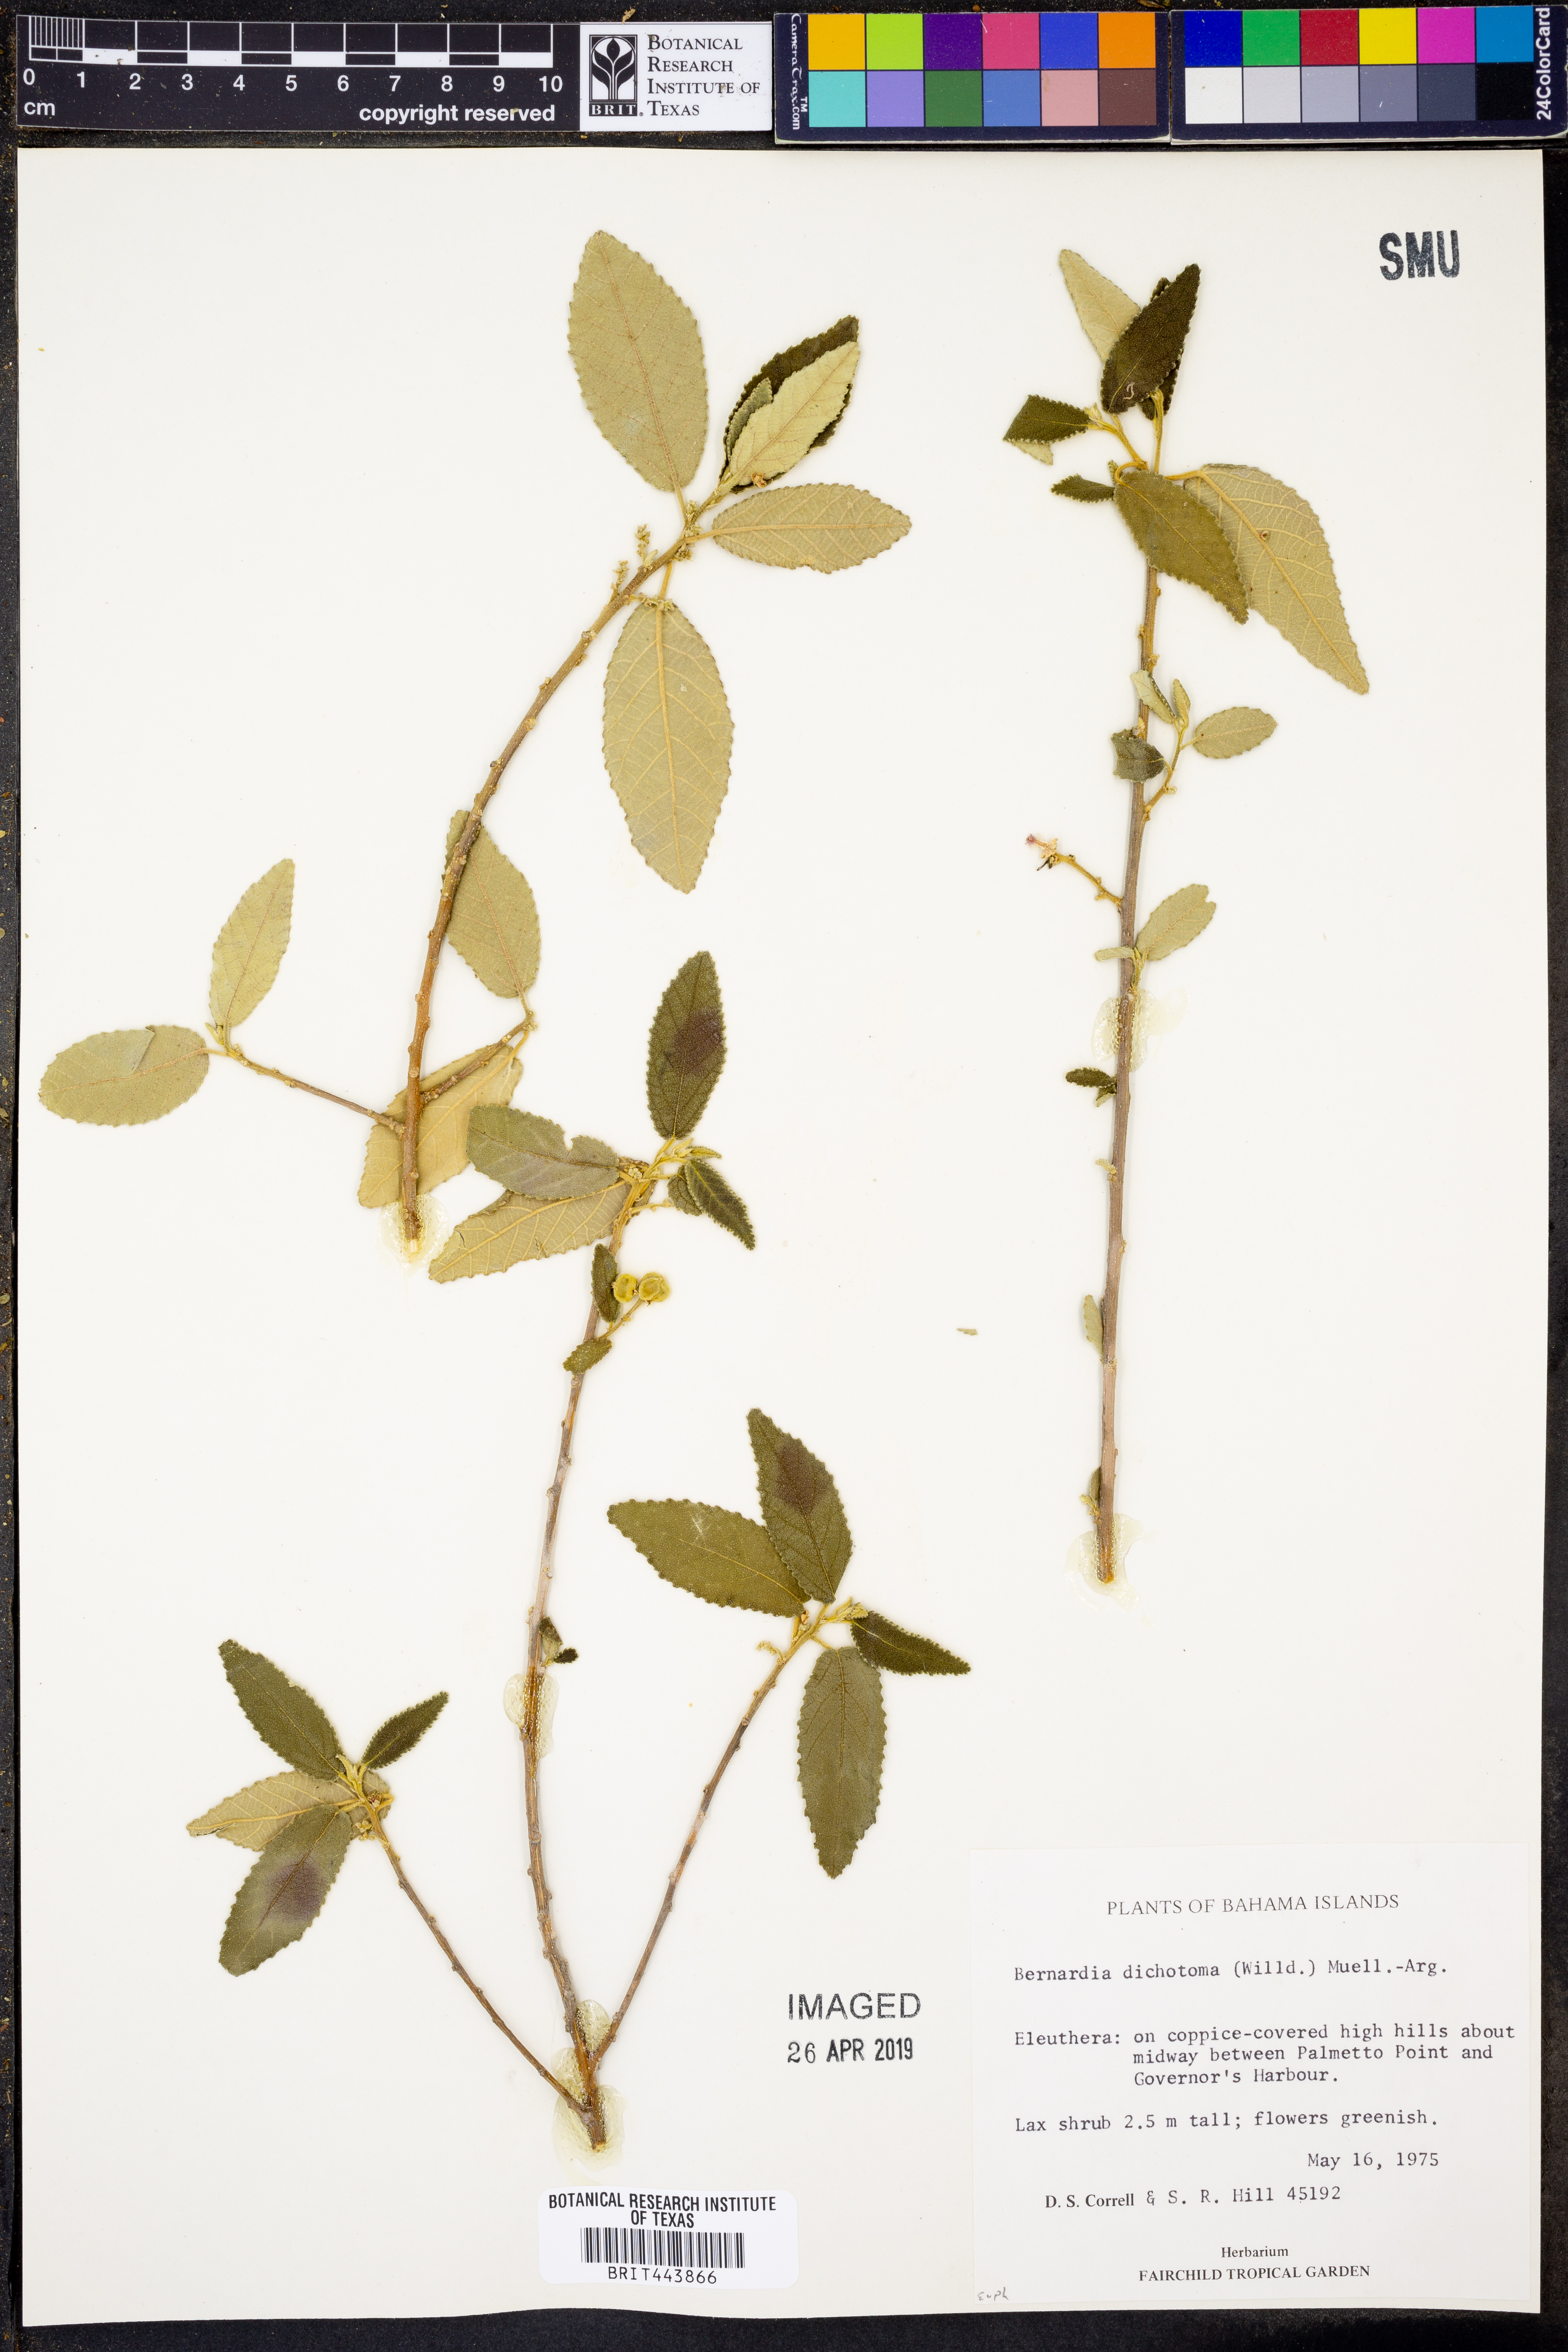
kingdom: Plantae
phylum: Tracheophyta
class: Magnoliopsida
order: Malpighiales
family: Euphorbiaceae
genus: Bernardia
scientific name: Bernardia dichotoma
